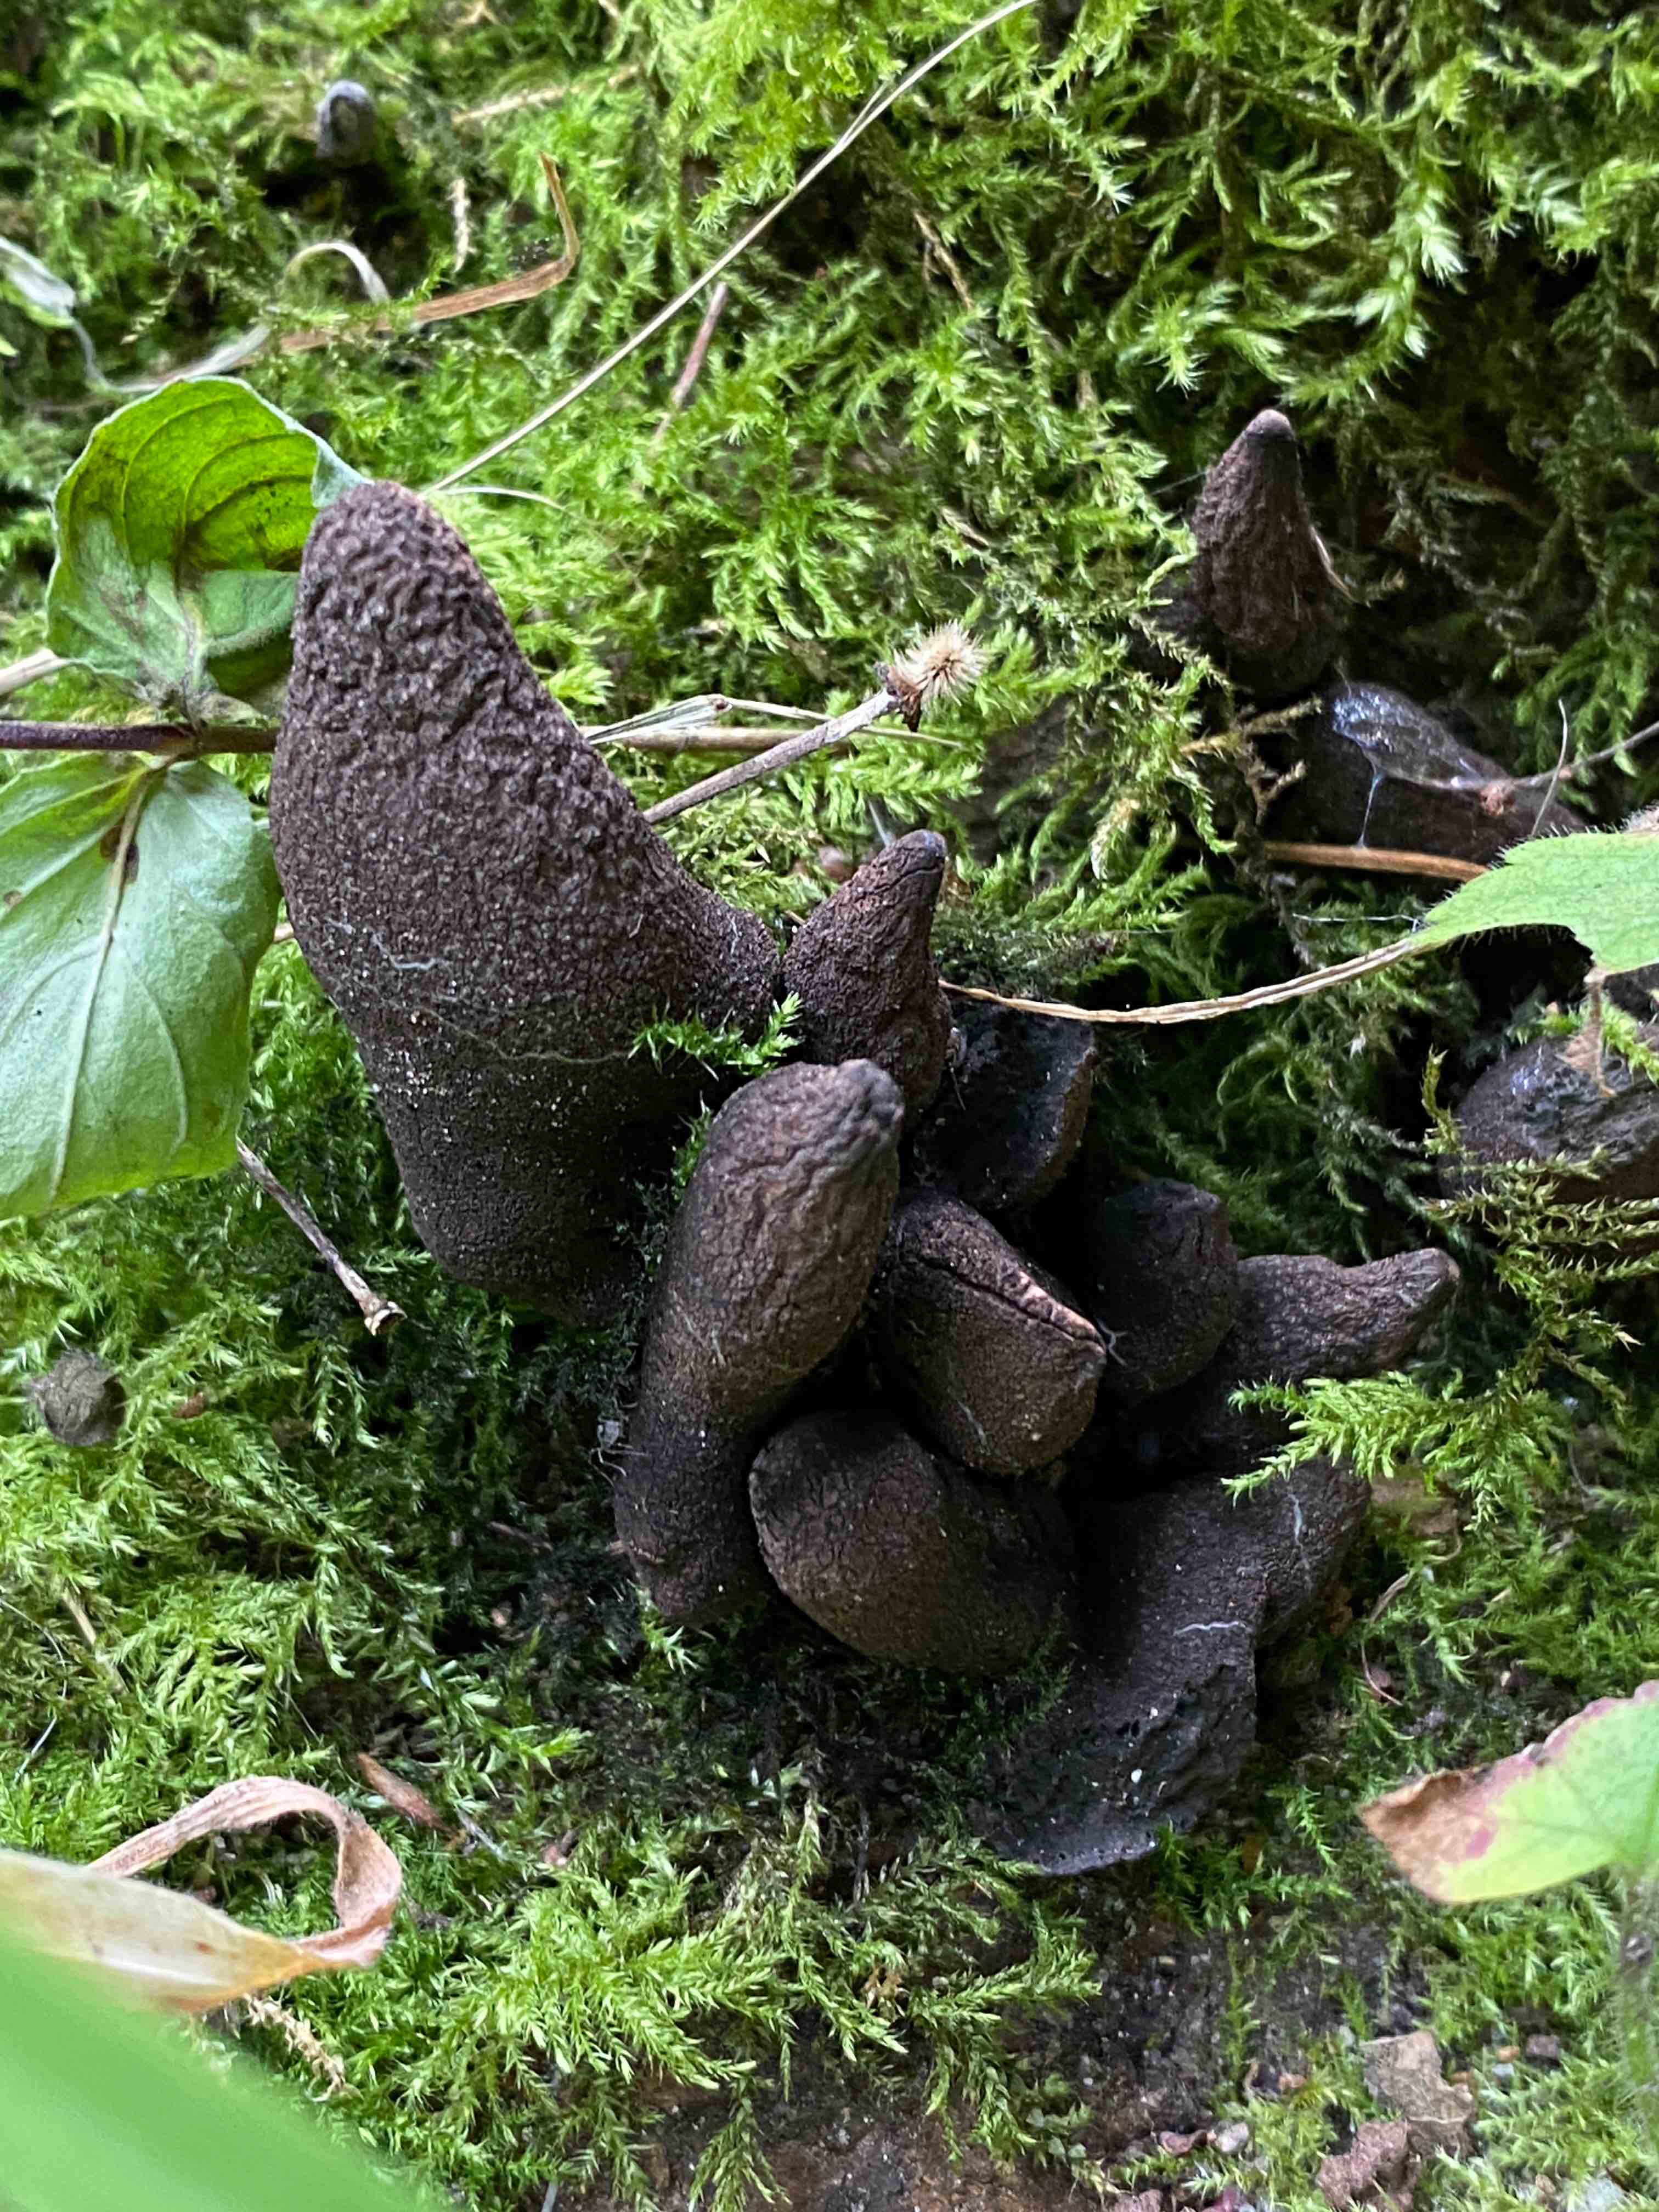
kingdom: Fungi
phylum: Ascomycota
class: Sordariomycetes
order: Xylariales
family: Xylariaceae
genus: Xylaria
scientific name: Xylaria polymorpha
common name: kølle-stødsvamp
